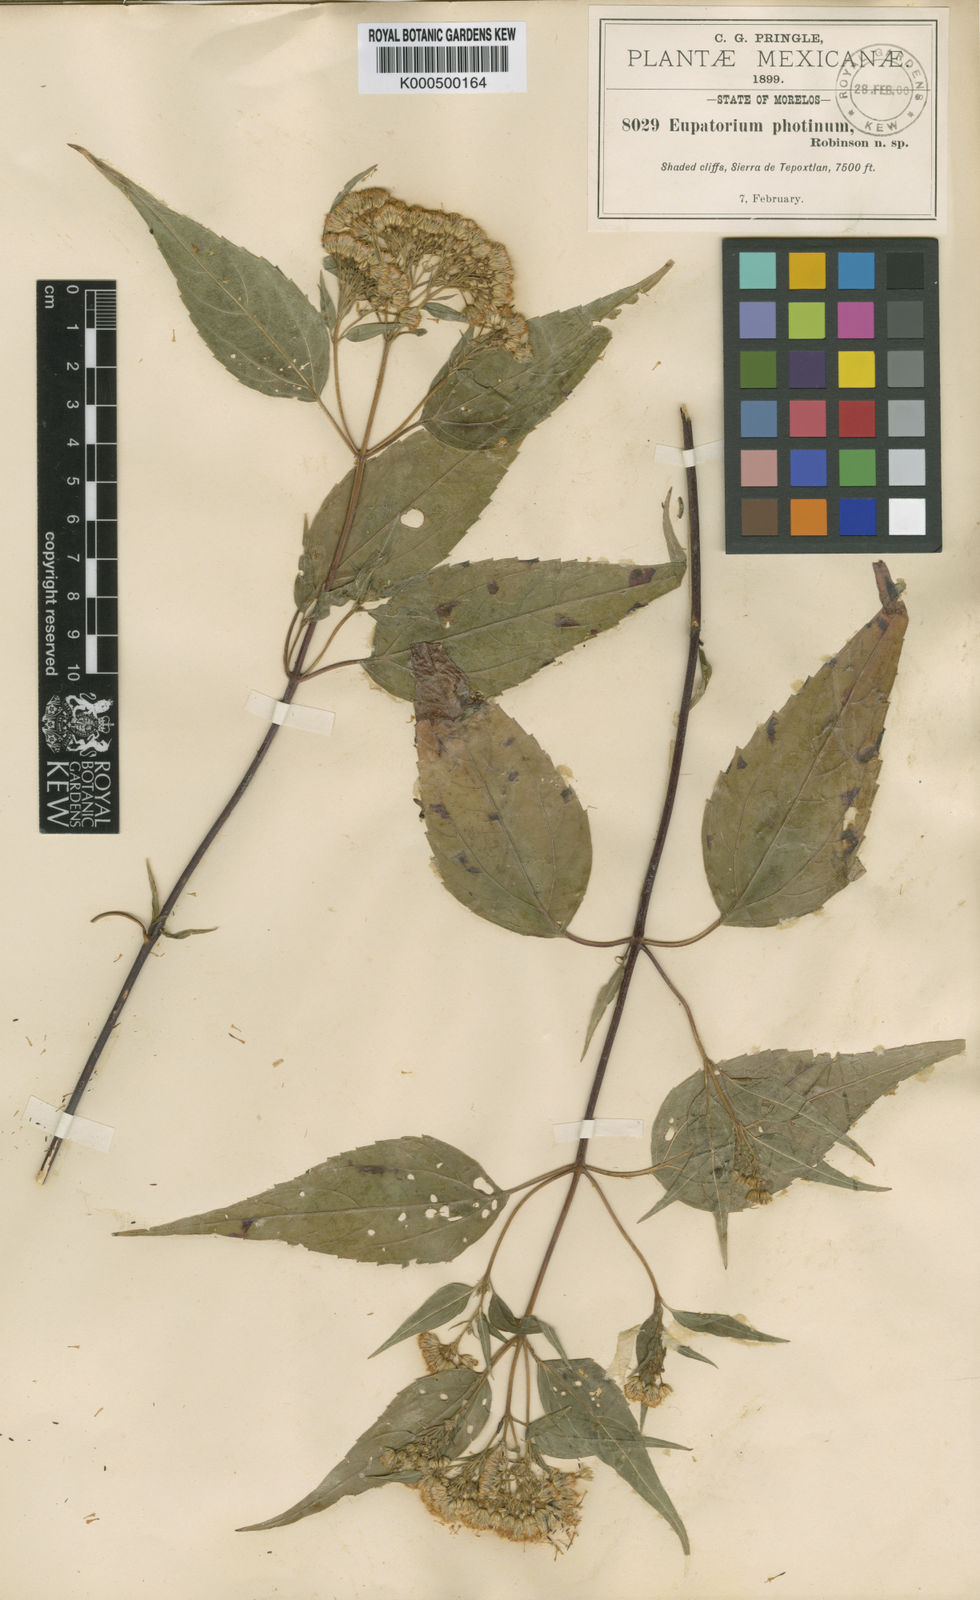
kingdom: Plantae
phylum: Tracheophyta
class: Magnoliopsida
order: Asterales
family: Asteraceae
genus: Ageratina
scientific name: Ageratina photina
